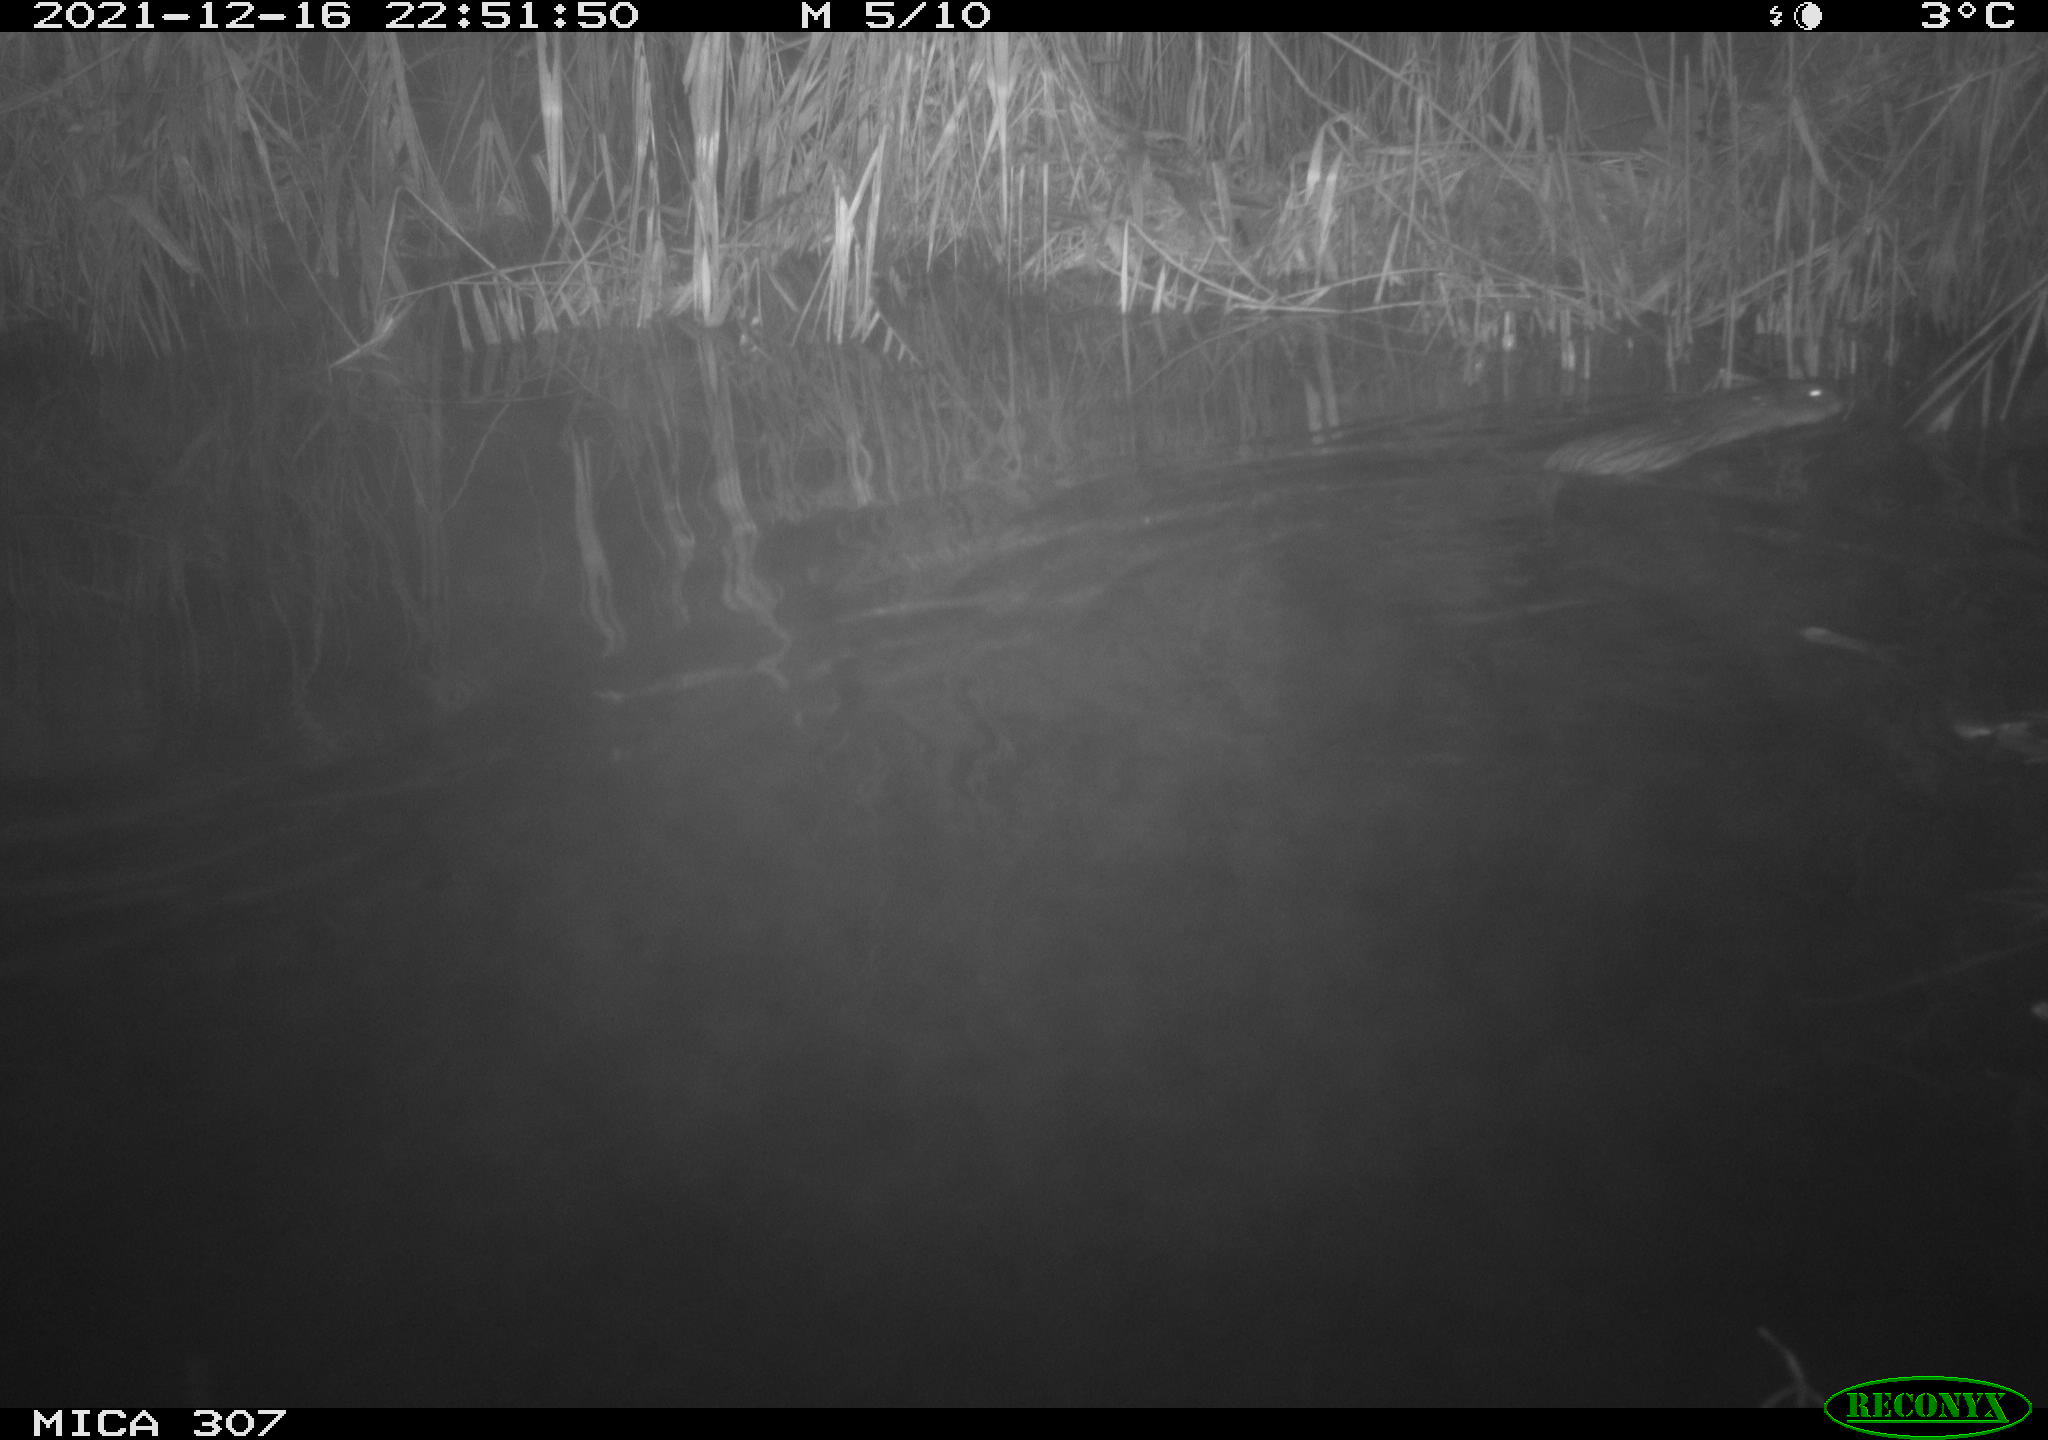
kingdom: Animalia
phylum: Chordata
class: Mammalia
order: Rodentia
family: Cricetidae
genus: Ondatra
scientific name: Ondatra zibethicus
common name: Muskrat
